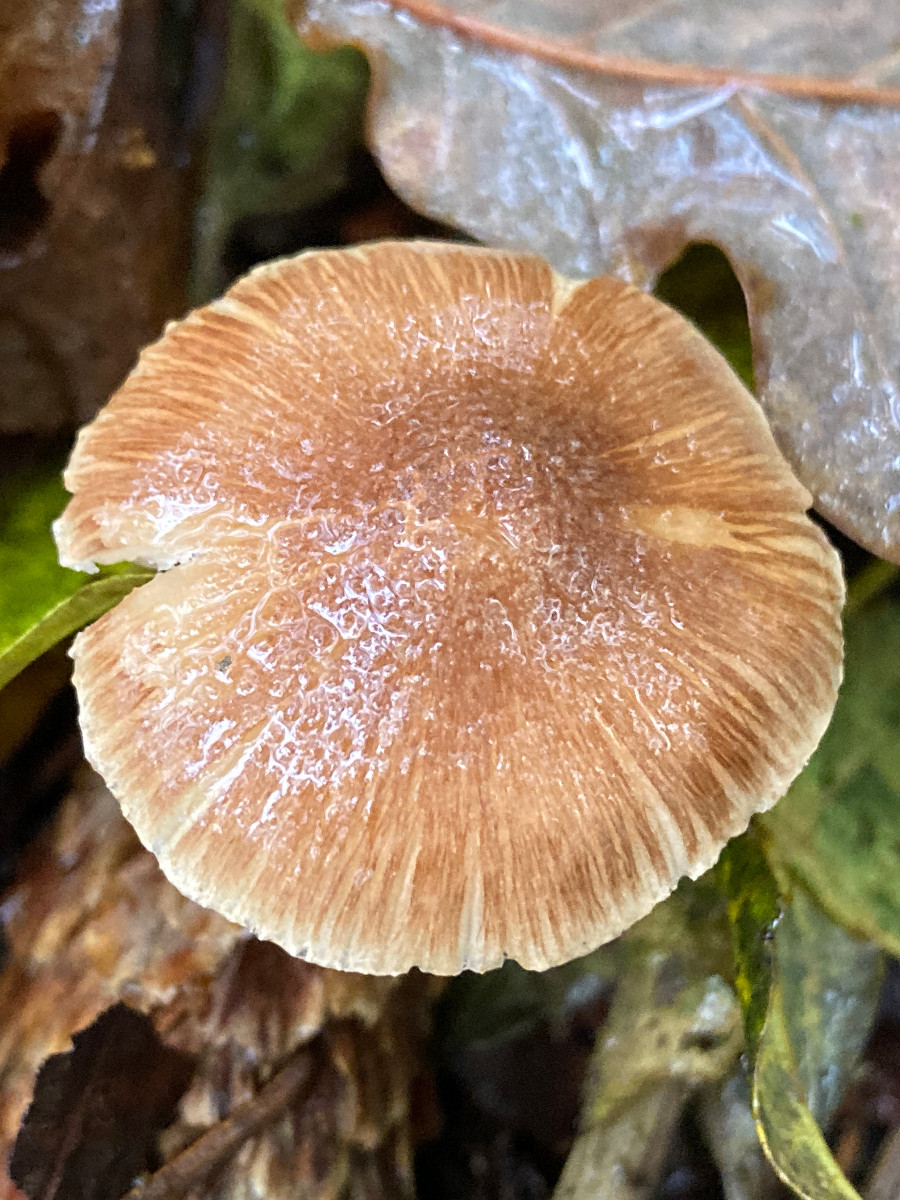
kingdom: Fungi
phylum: Basidiomycota
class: Agaricomycetes
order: Agaricales
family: Inocybaceae
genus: Inocybe
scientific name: Inocybe
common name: trævlhat
